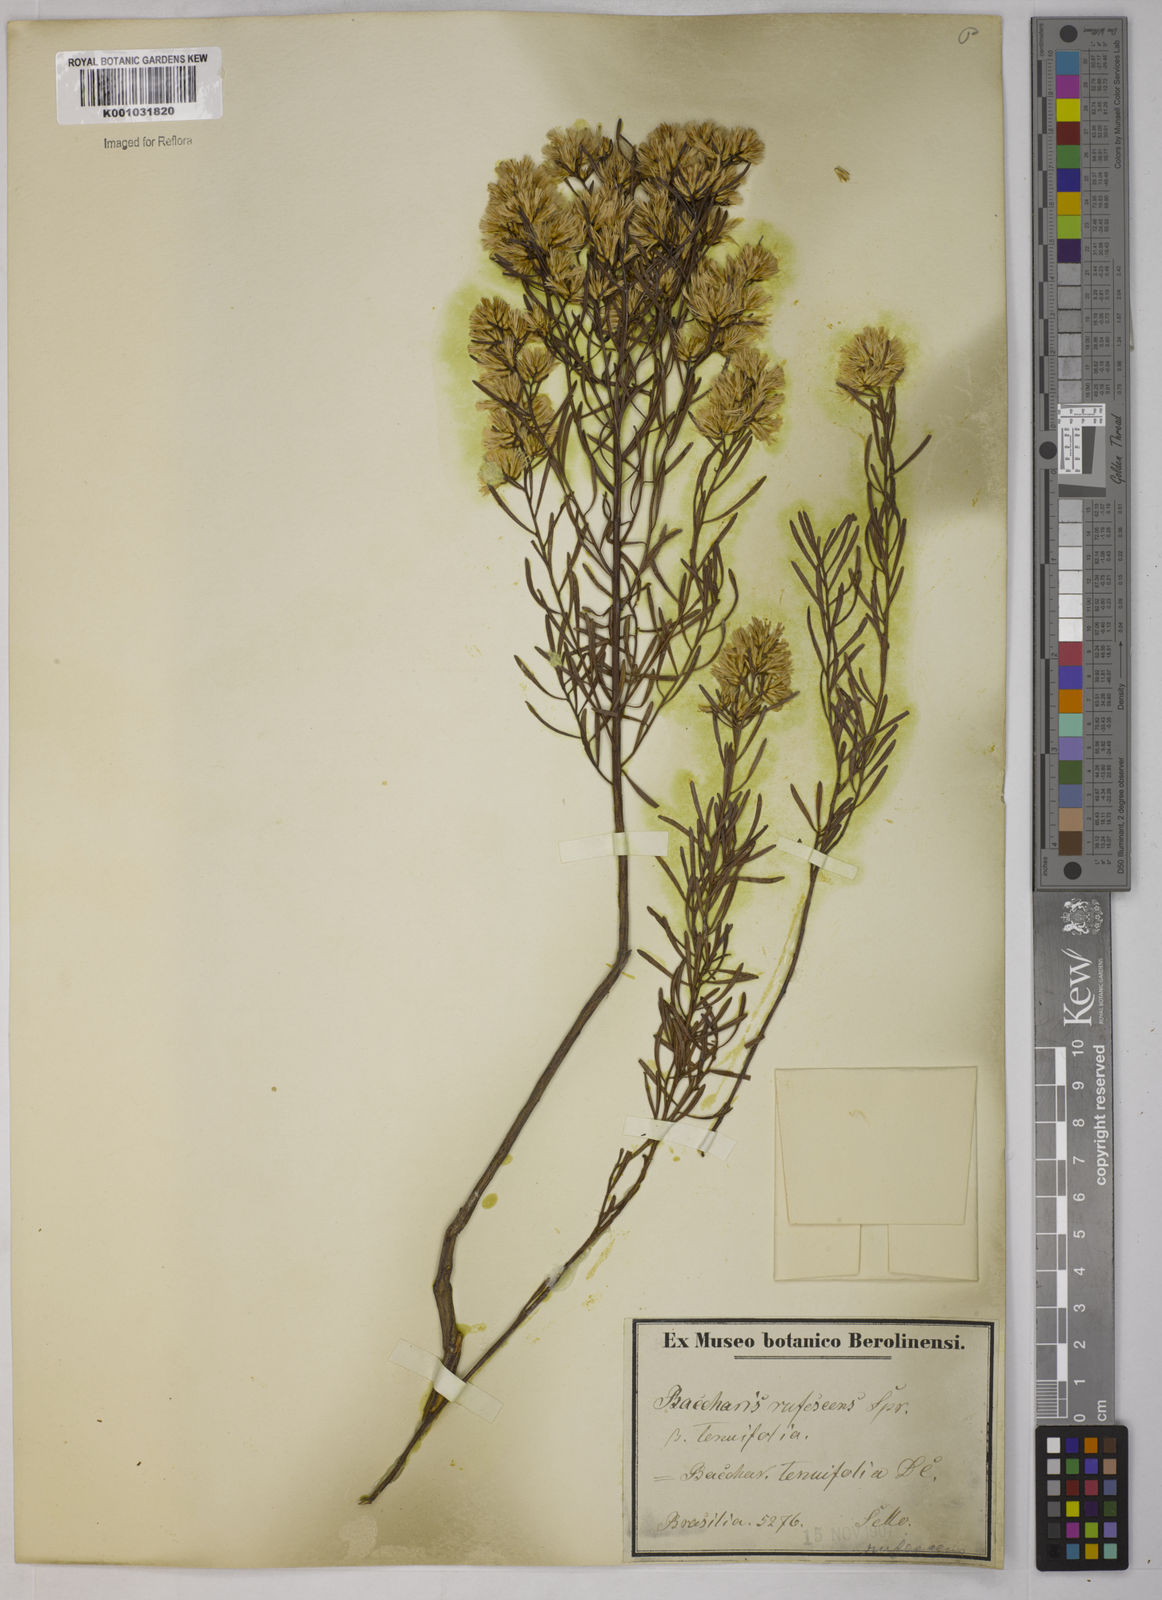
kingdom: Plantae
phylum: Tracheophyta
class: Magnoliopsida
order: Asterales
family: Asteraceae
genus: Baccharis
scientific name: Baccharis leptocephala
